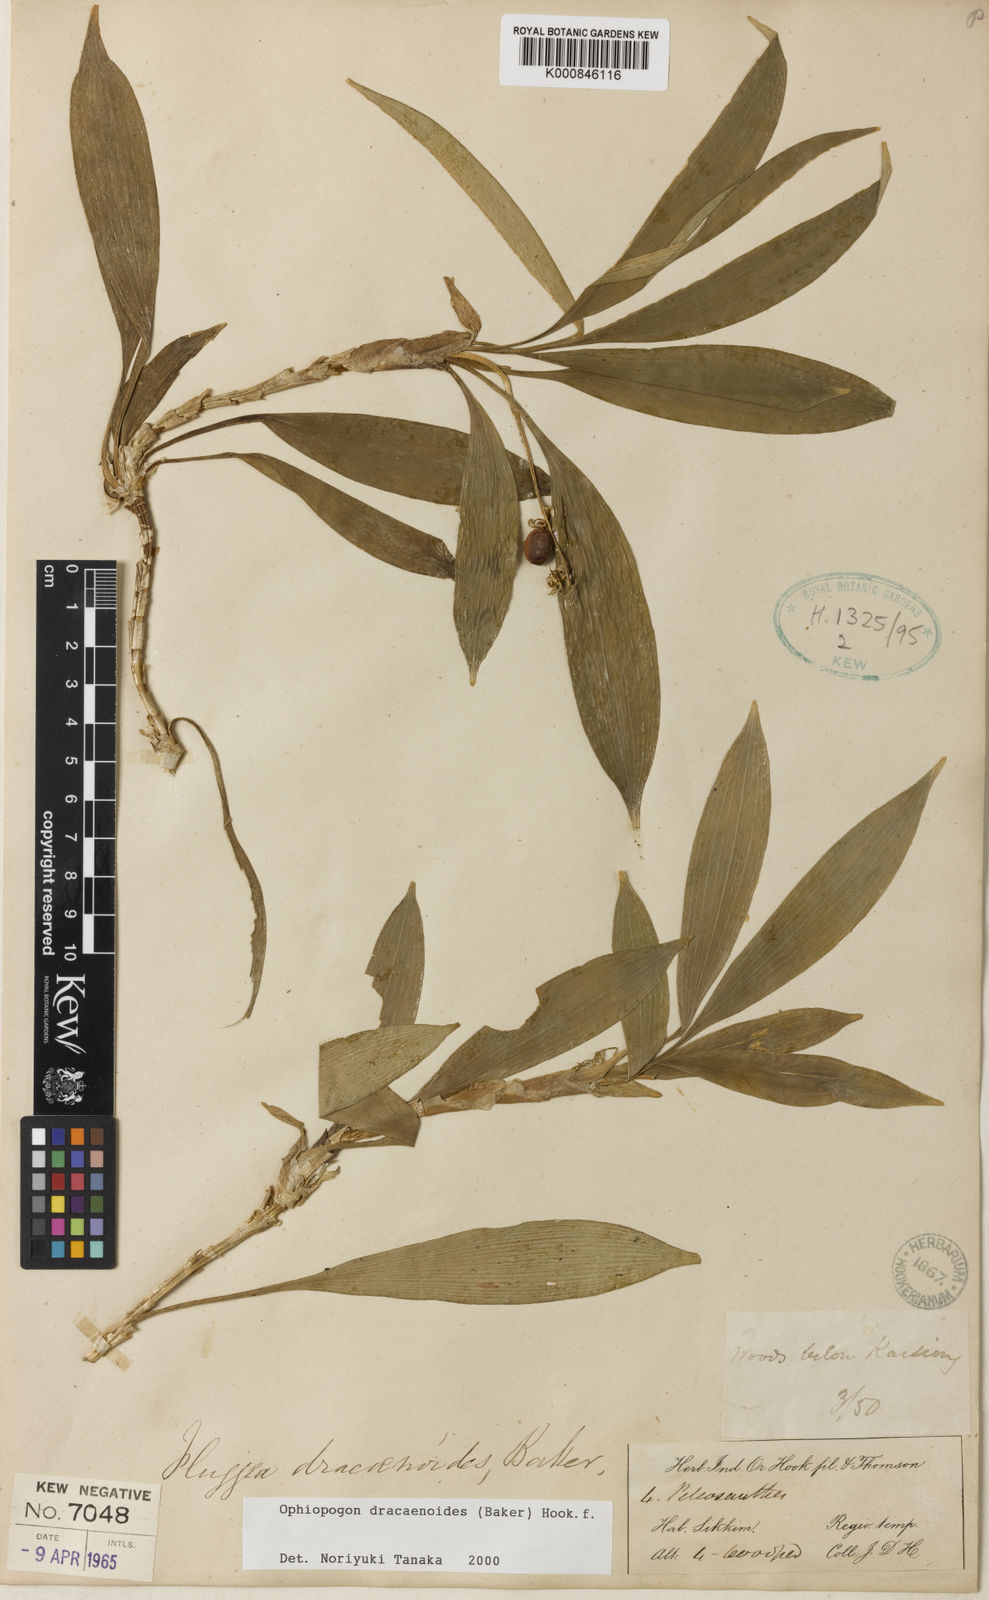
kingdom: Plantae
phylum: Tracheophyta
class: Liliopsida
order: Asparagales
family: Asparagaceae
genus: Ophiopogon
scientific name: Ophiopogon dracaenoides
